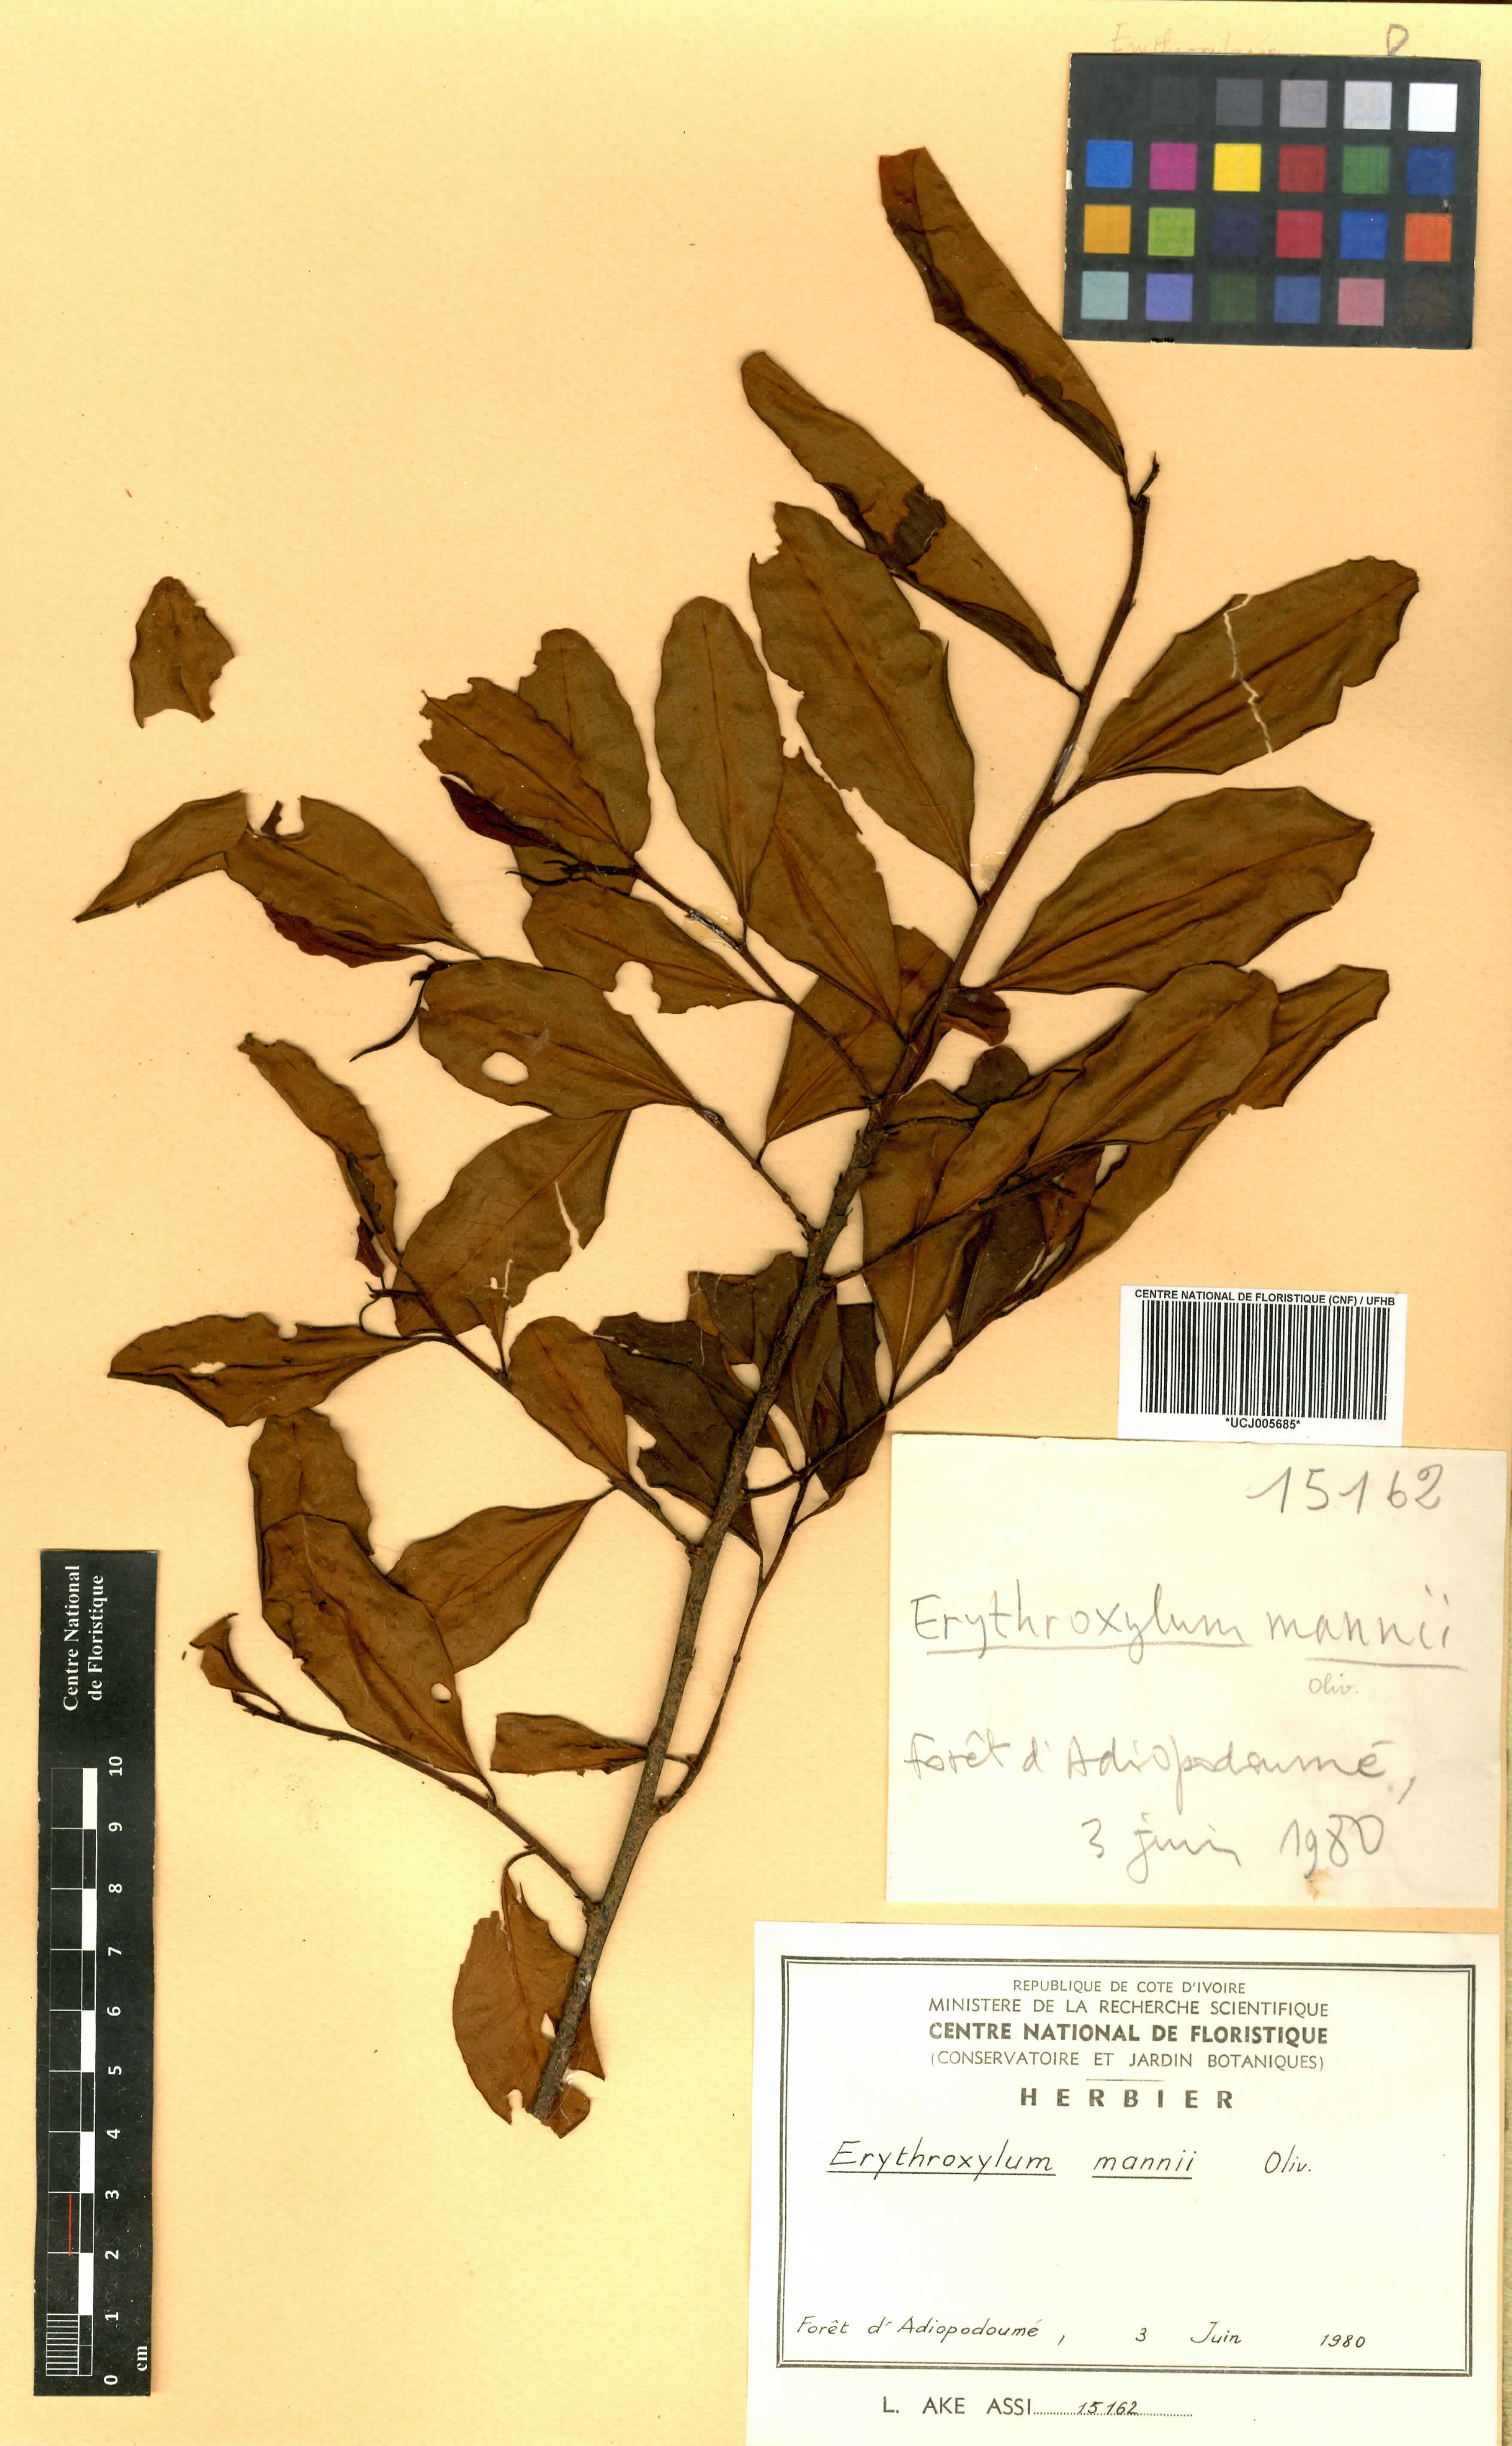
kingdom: Plantae
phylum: Tracheophyta
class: Magnoliopsida
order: Malpighiales
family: Erythroxylaceae
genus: Erythroxylum
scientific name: Erythroxylum mannii
